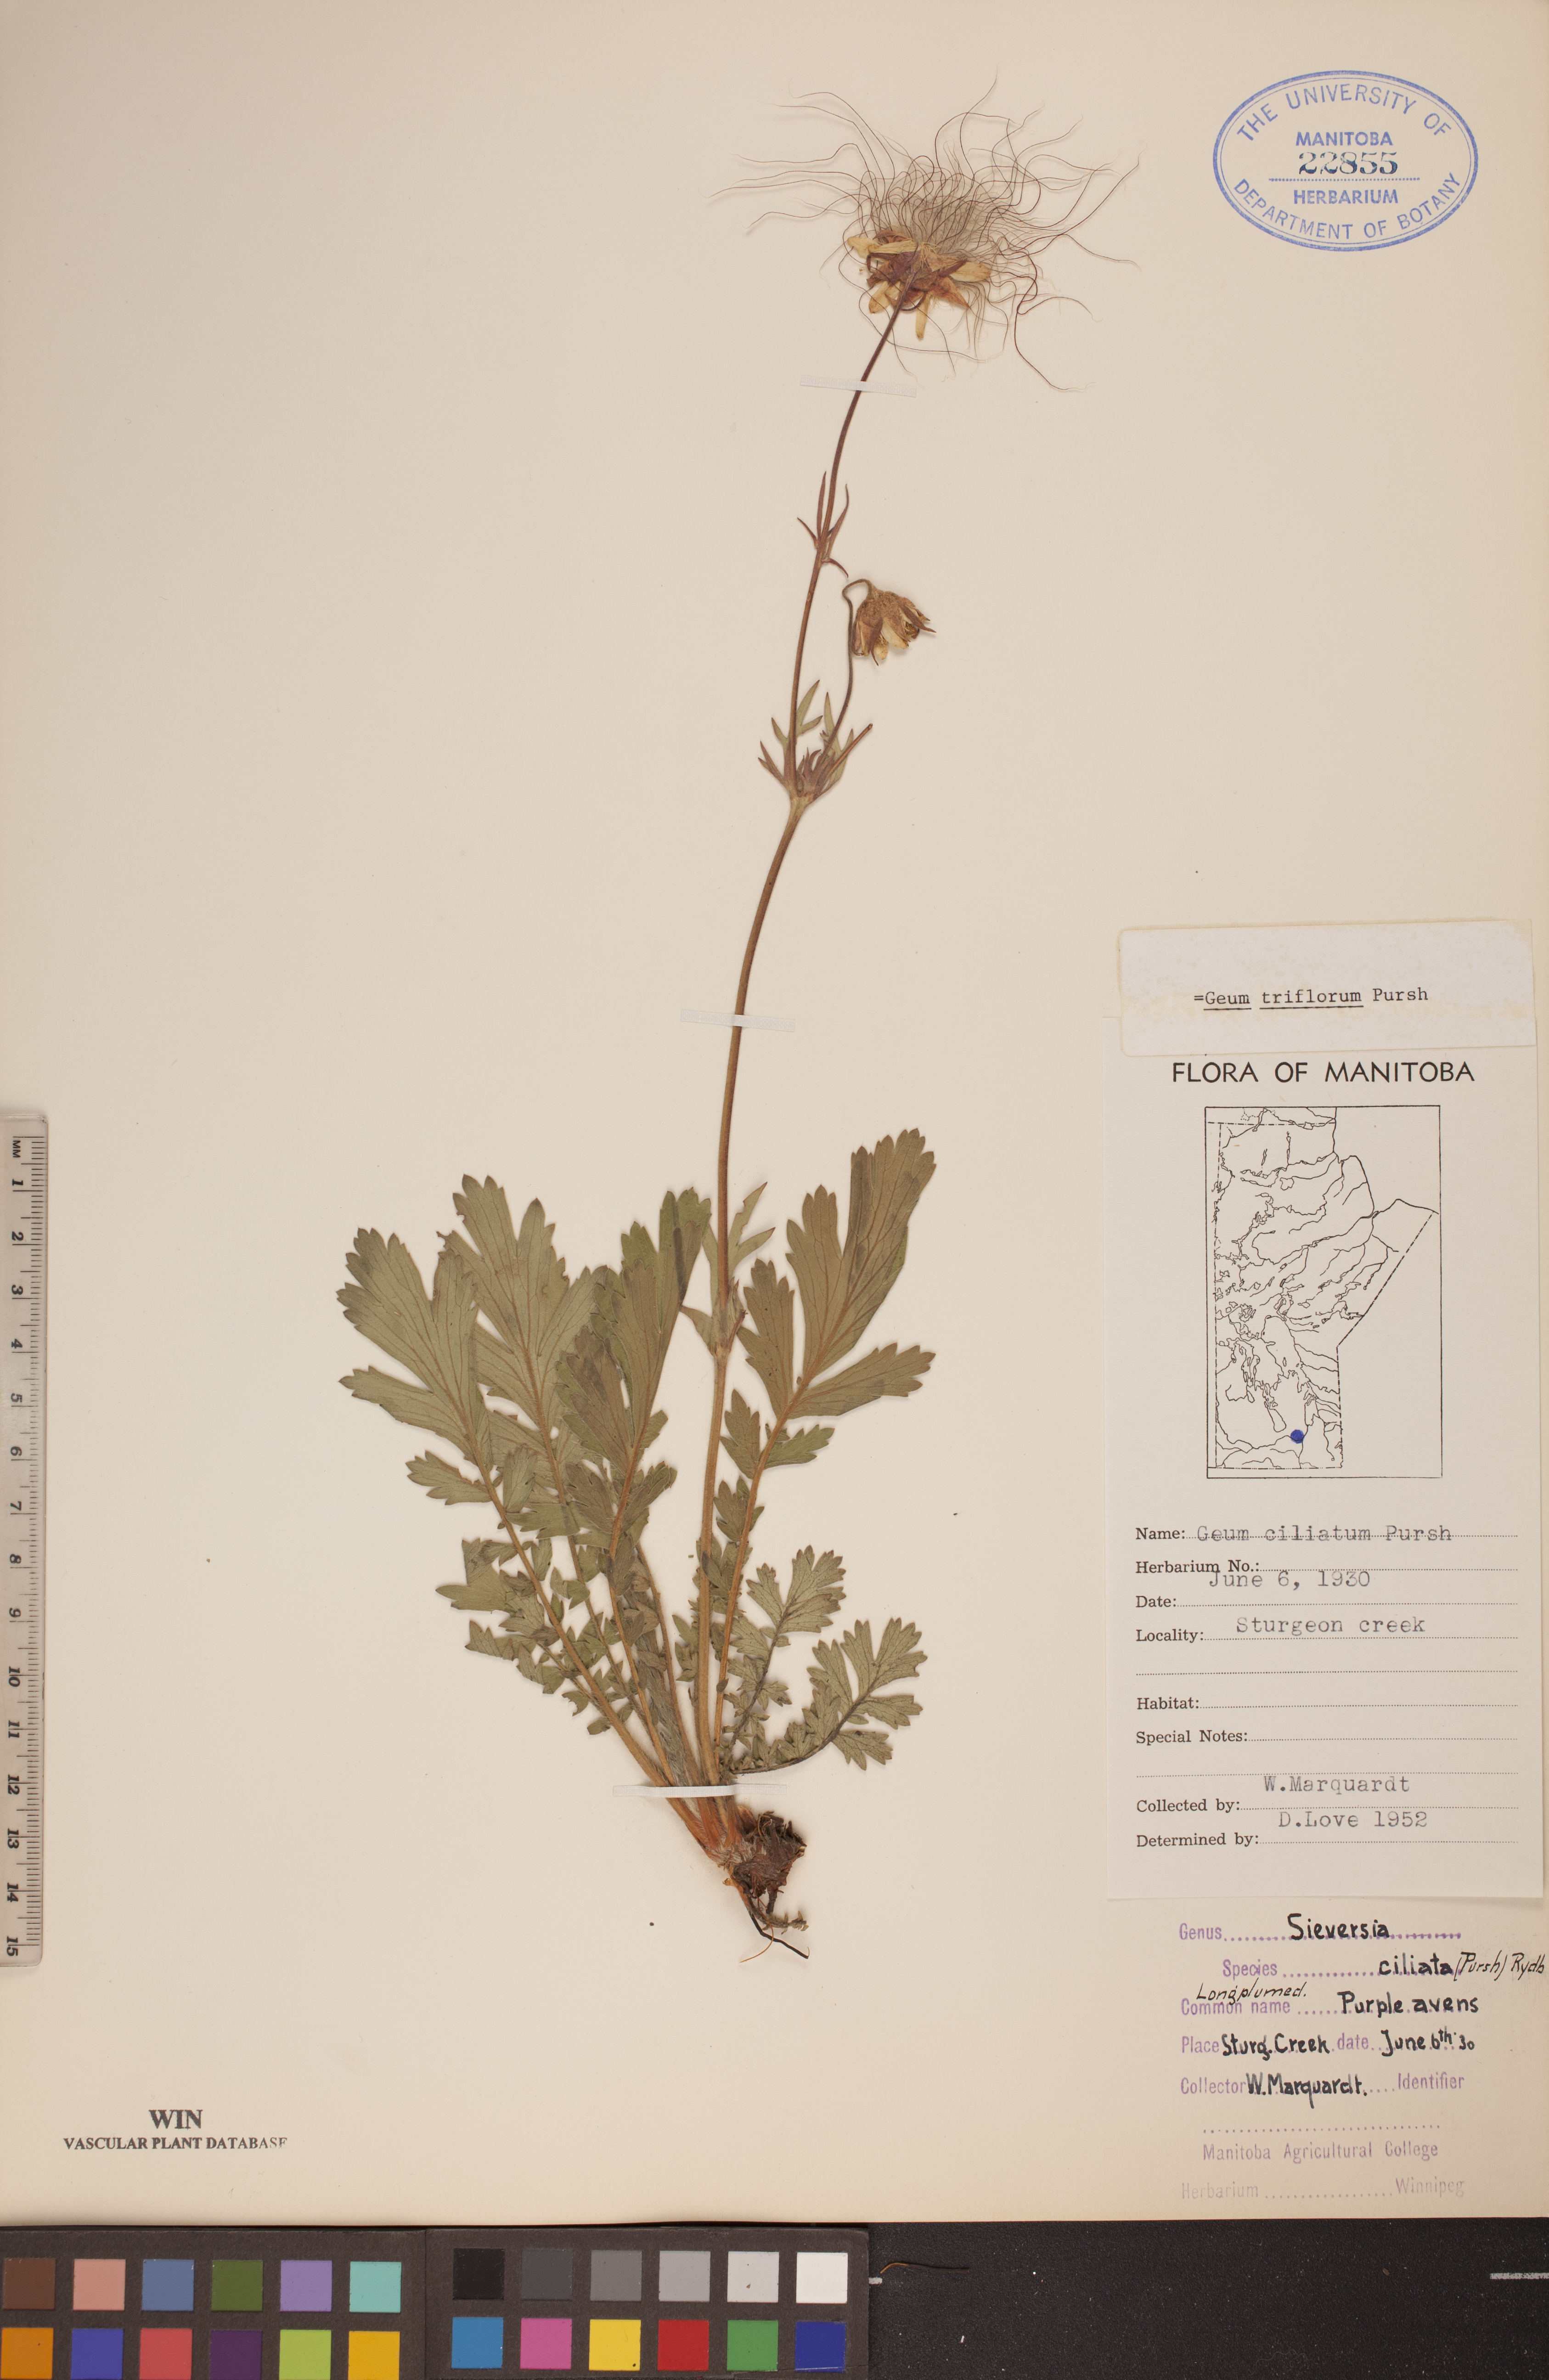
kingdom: Plantae
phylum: Tracheophyta
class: Magnoliopsida
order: Rosales
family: Rosaceae
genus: Geum
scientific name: Geum triflorum
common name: Old man's whiskers
